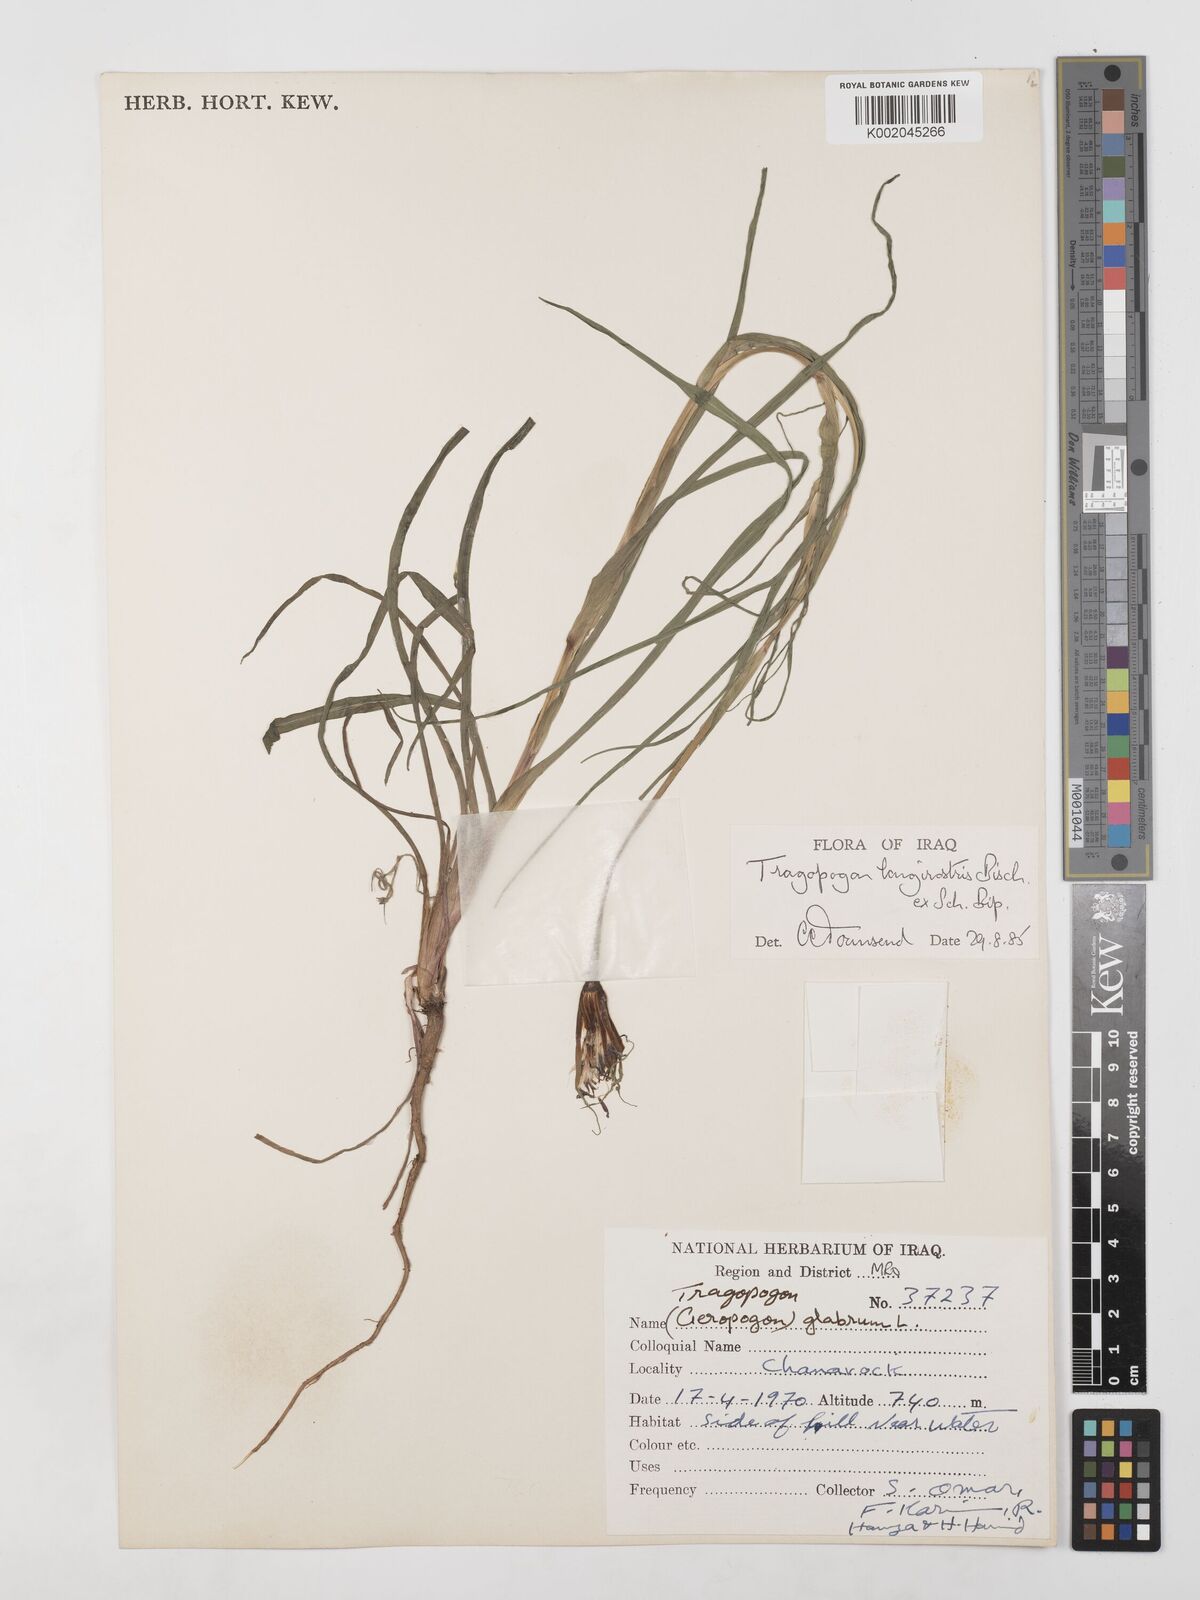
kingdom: Plantae
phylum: Tracheophyta
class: Magnoliopsida
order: Asterales
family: Asteraceae
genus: Tragopogon
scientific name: Tragopogon coelesyriacus
